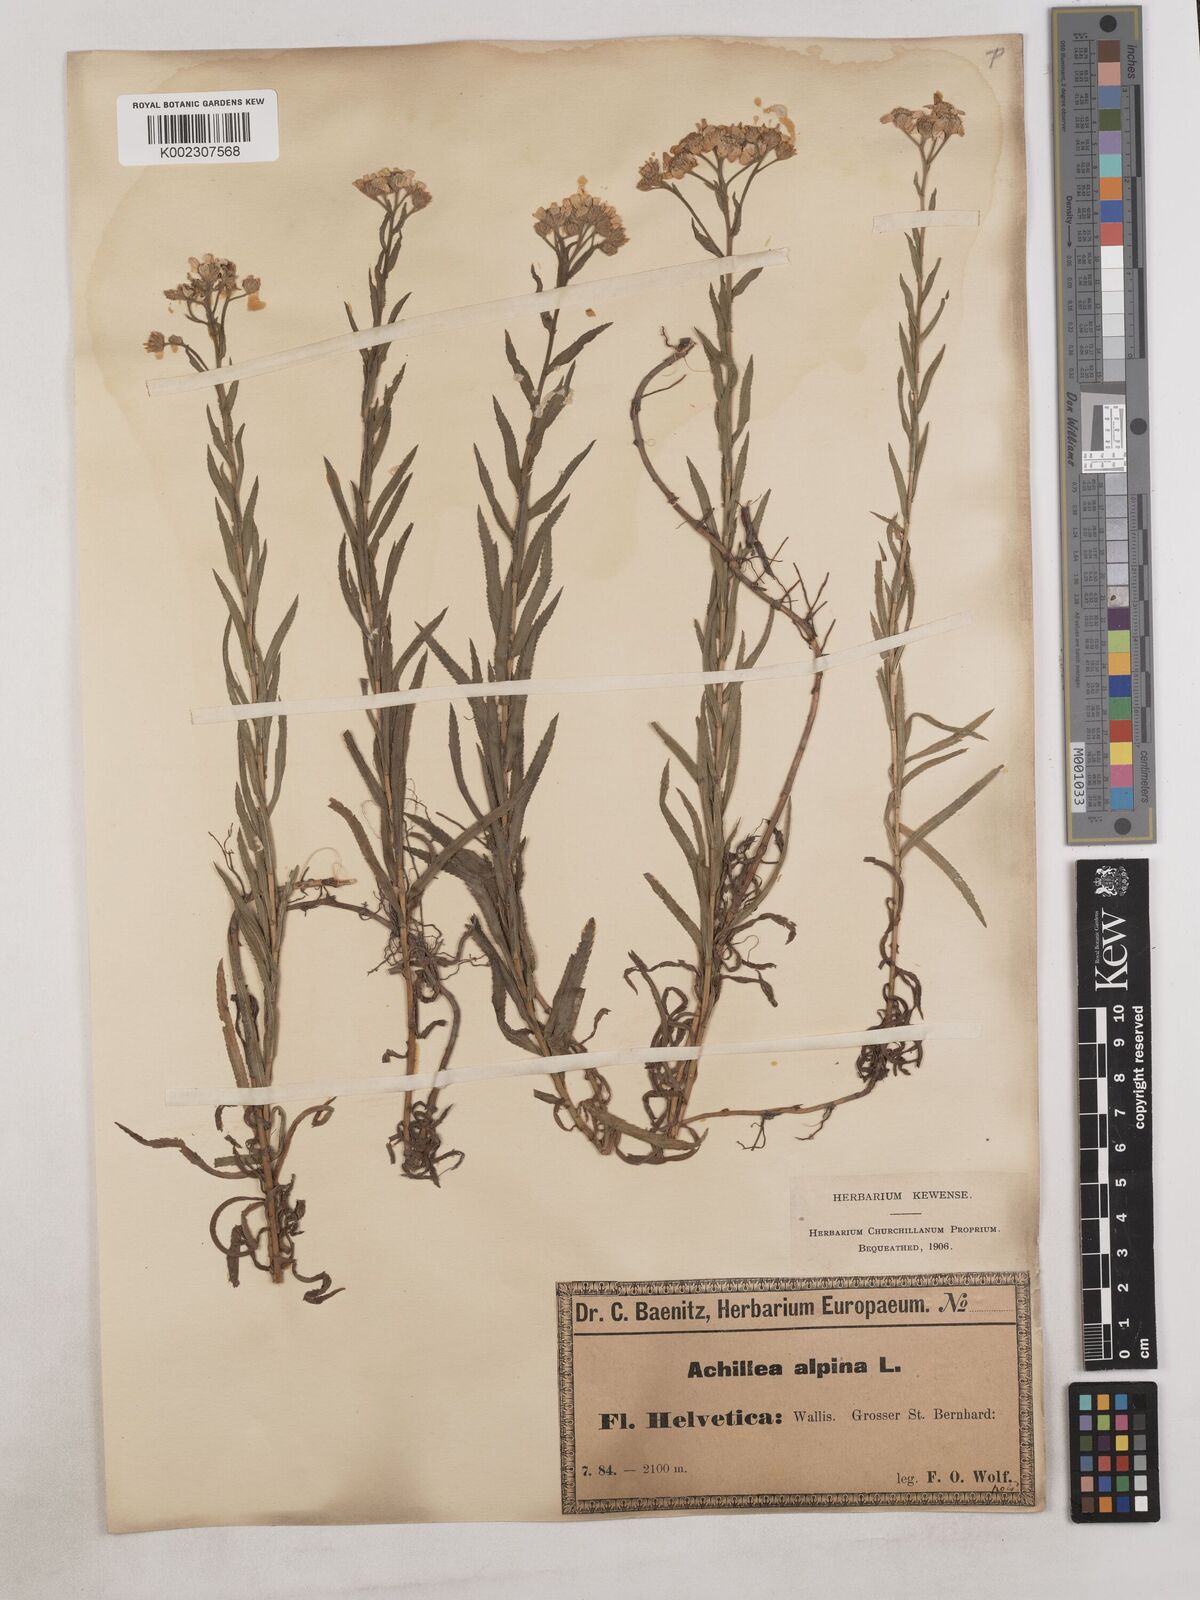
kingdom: Plantae
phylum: Tracheophyta
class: Magnoliopsida
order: Asterales
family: Asteraceae
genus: Achillea
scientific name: Achillea serrata
